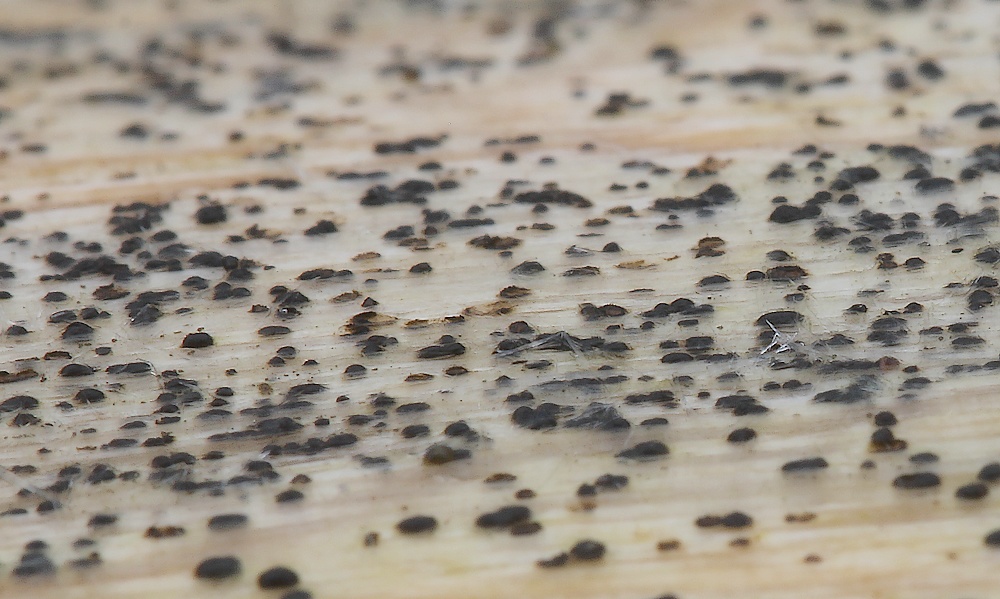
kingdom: Fungi
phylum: Ascomycota
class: Leotiomycetes
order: Helotiales
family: Helotiaceae
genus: Durella
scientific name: Durella atrocyanea
